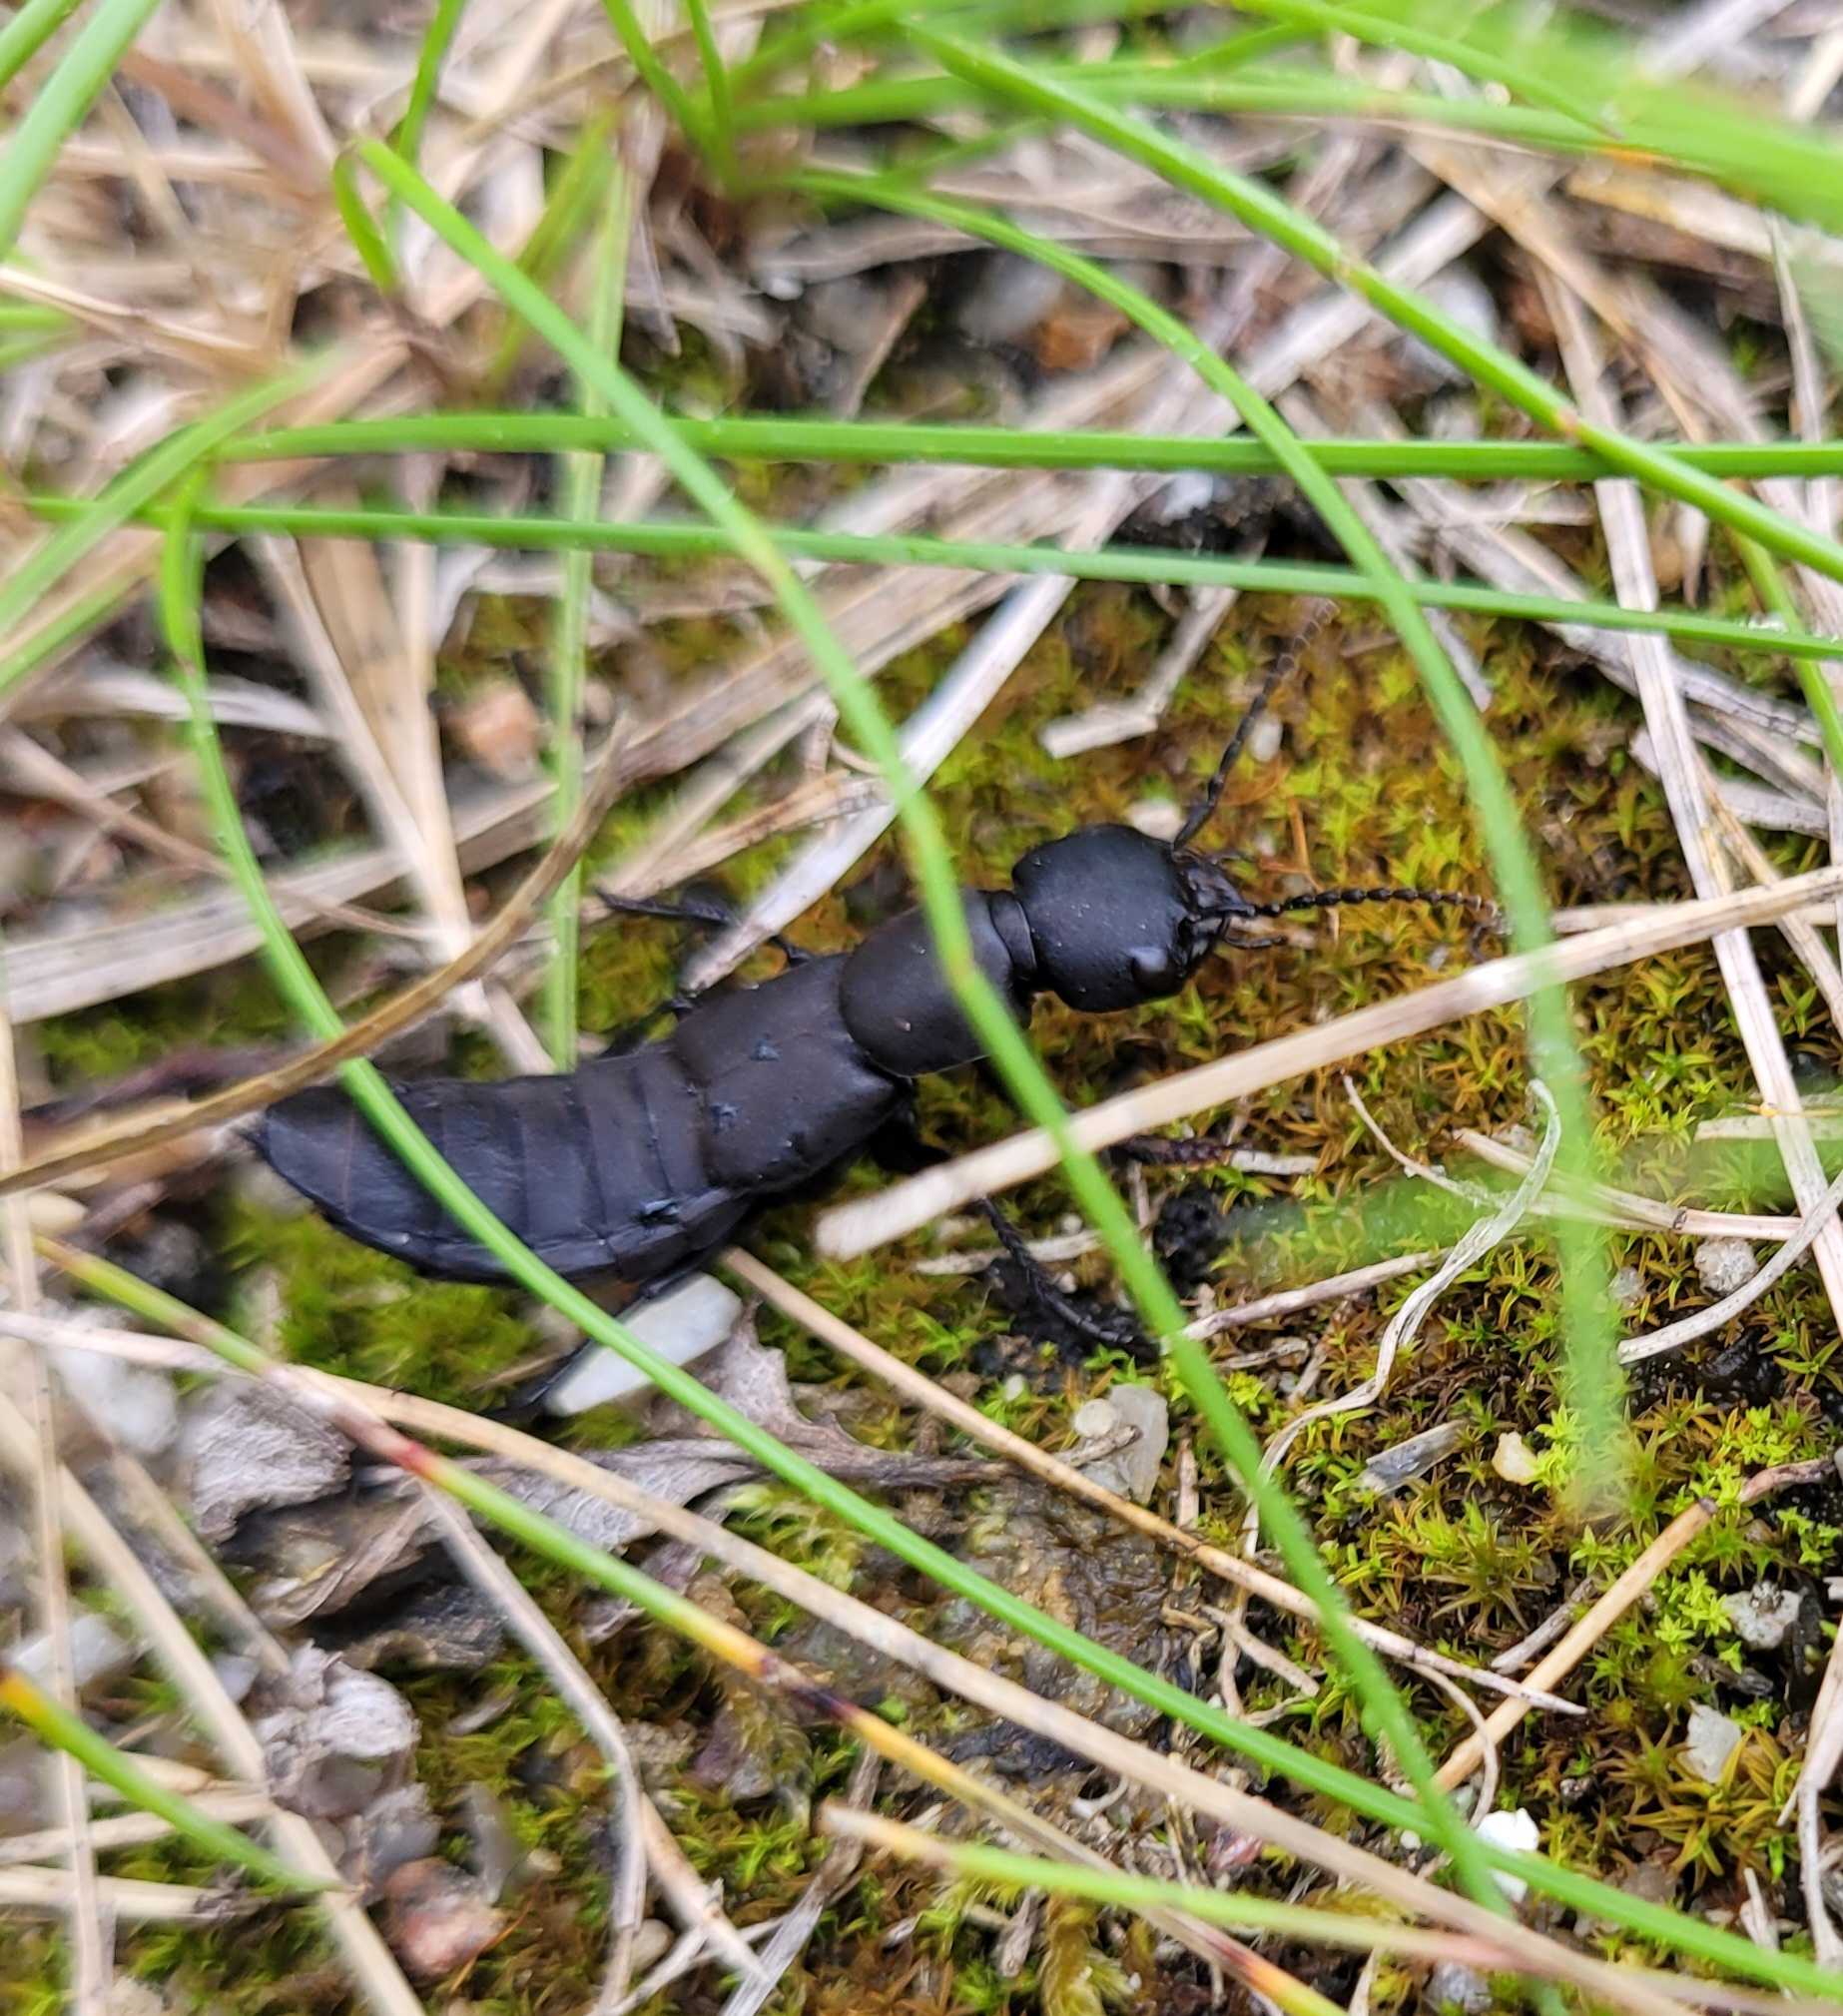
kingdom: Animalia
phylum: Arthropoda
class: Insecta
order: Coleoptera
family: Staphylinidae
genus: Ocypus
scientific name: Ocypus olens
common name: Stor rovbille
